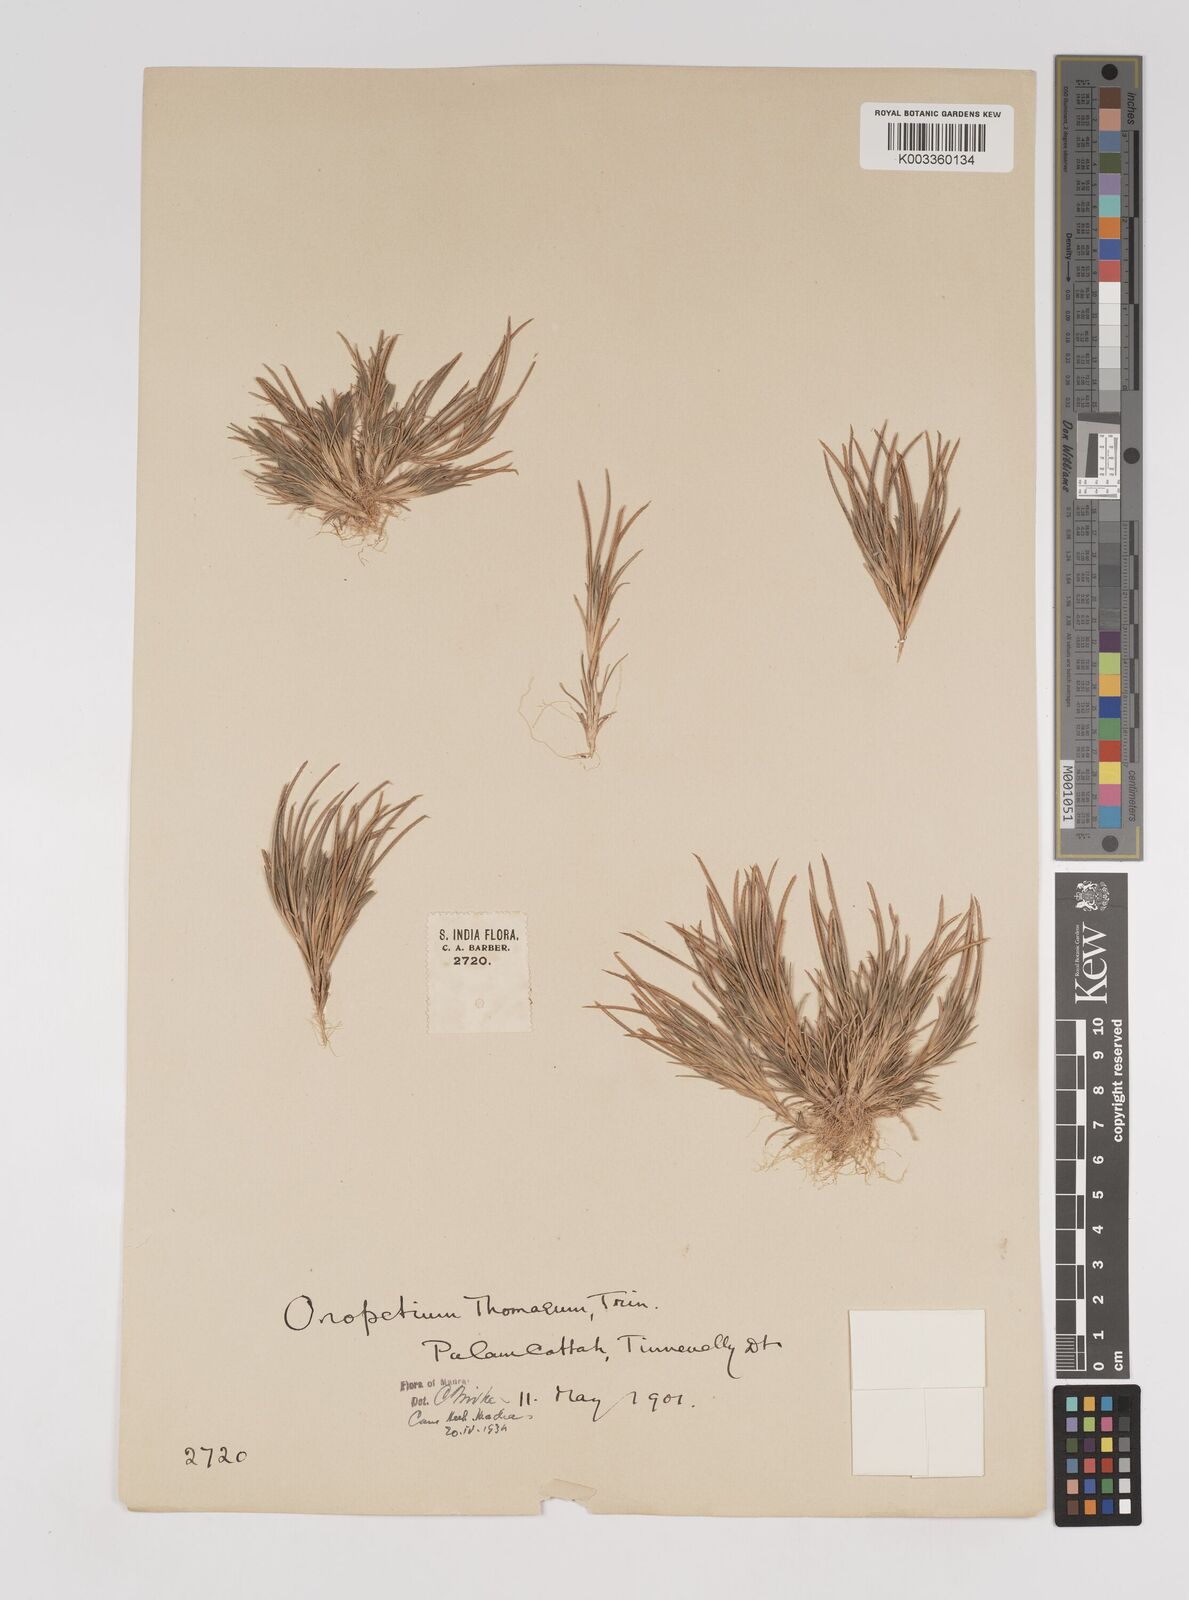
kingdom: Plantae
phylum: Tracheophyta
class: Liliopsida
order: Poales
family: Poaceae
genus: Oropetium
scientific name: Oropetium thomaeum
